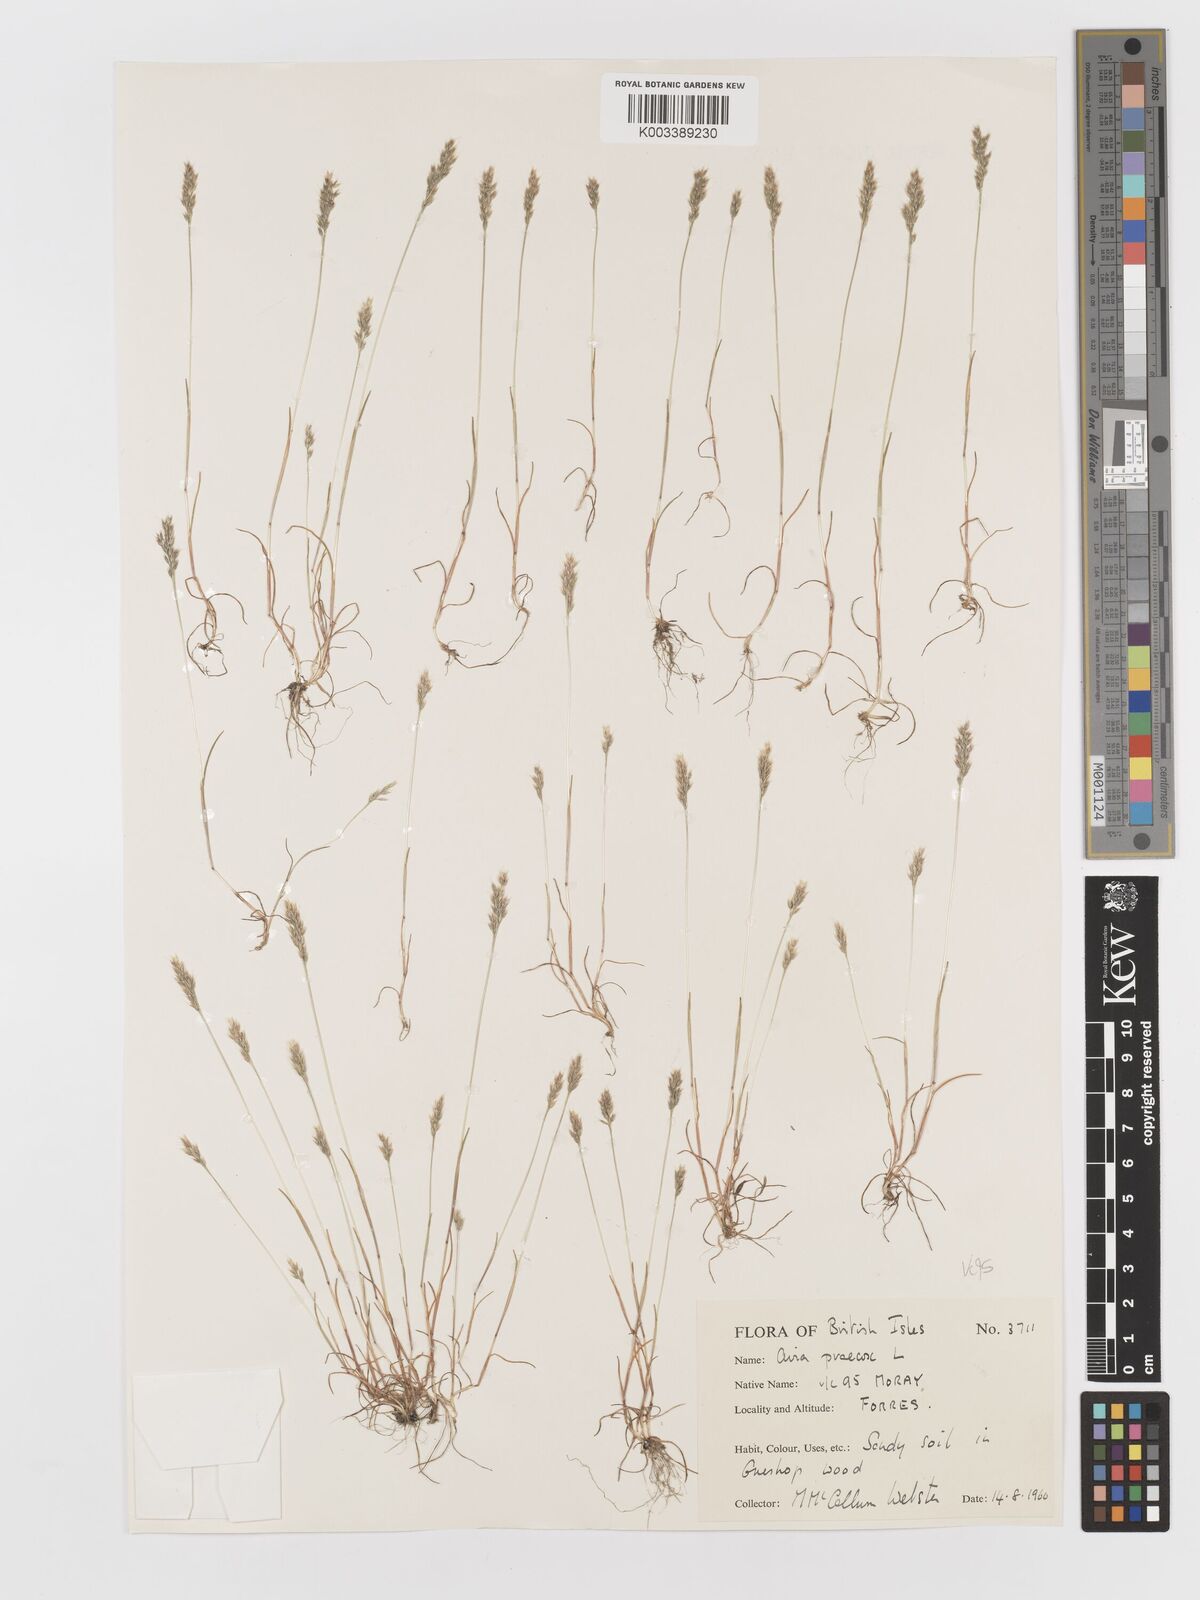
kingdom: Plantae
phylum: Tracheophyta
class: Liliopsida
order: Poales
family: Poaceae
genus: Aira
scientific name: Aira praecox
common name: Early hair-grass
